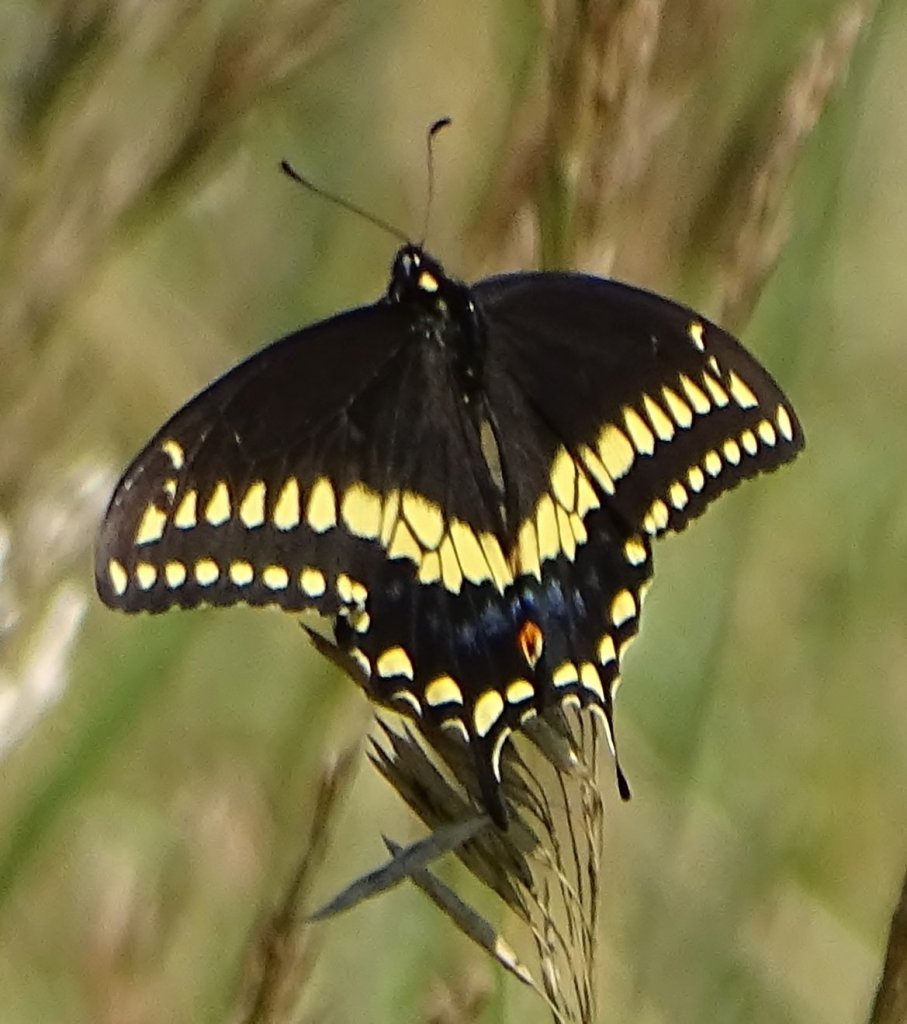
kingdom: Animalia
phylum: Arthropoda
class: Insecta
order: Lepidoptera
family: Papilionidae
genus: Papilio
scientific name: Papilio polyxenes
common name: Black Swallowtail
